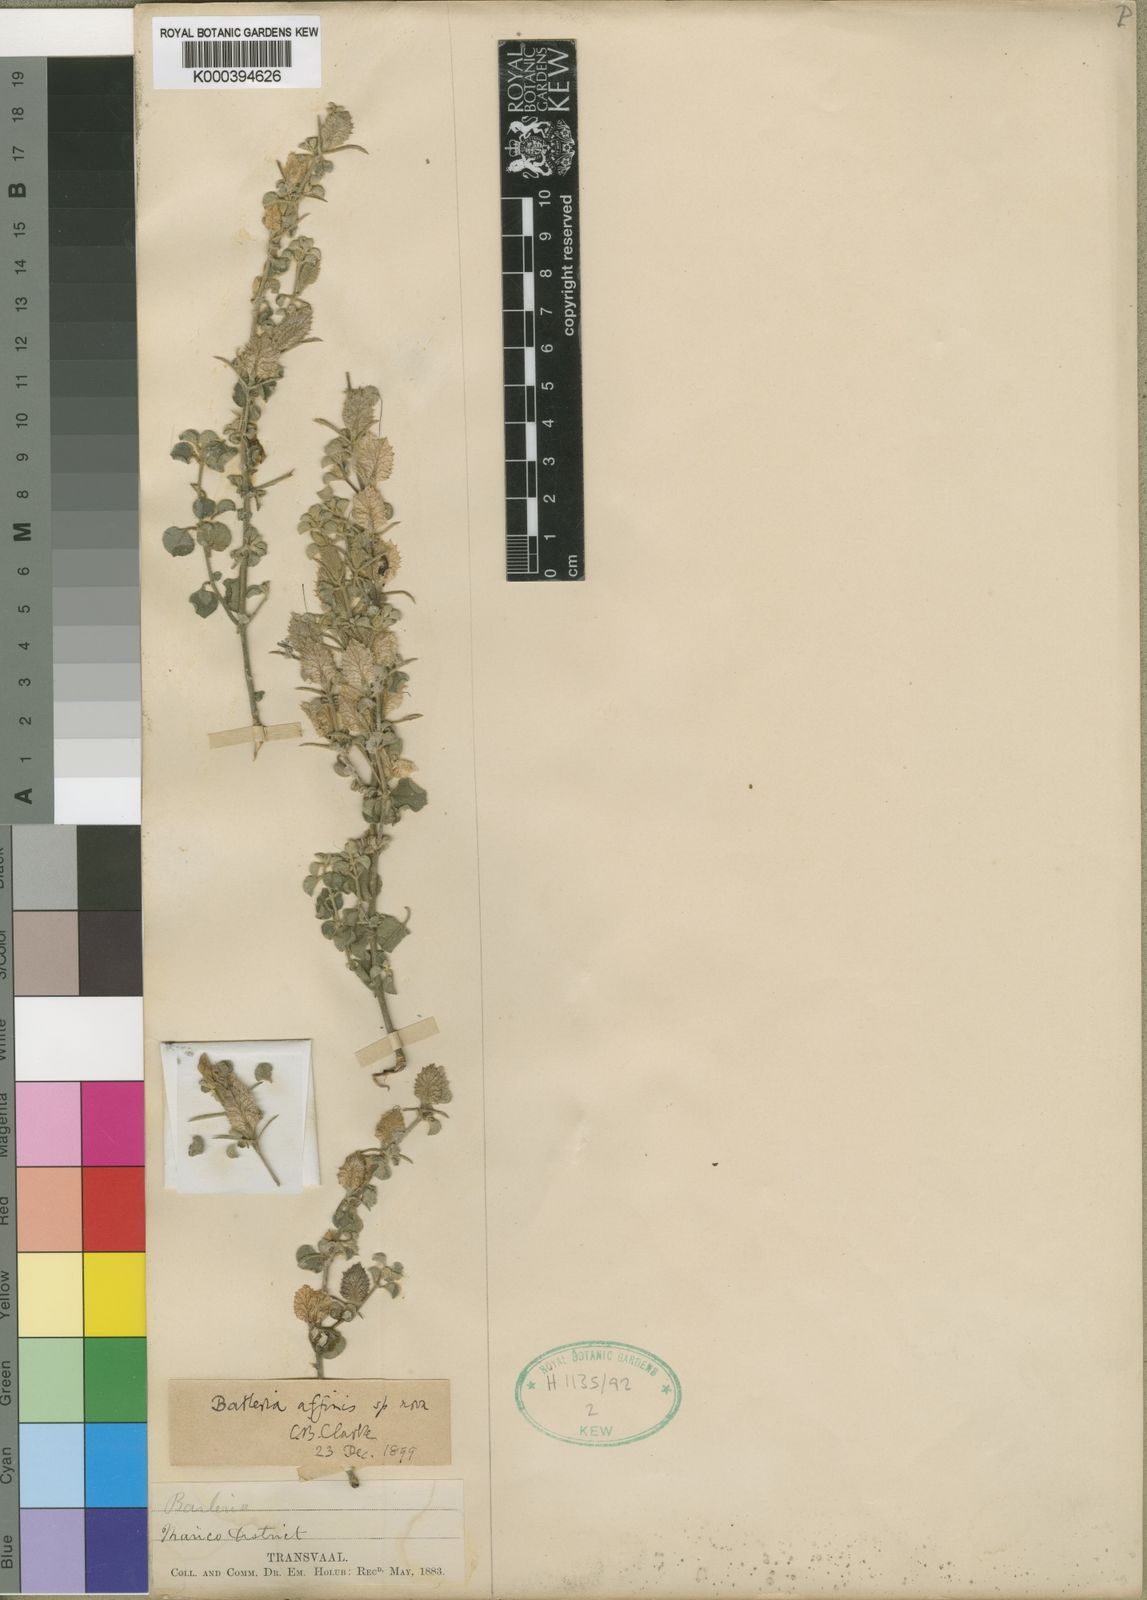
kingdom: Plantae
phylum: Tracheophyta
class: Magnoliopsida
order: Lamiales
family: Acanthaceae
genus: Barleria
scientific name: Barleria affinis
